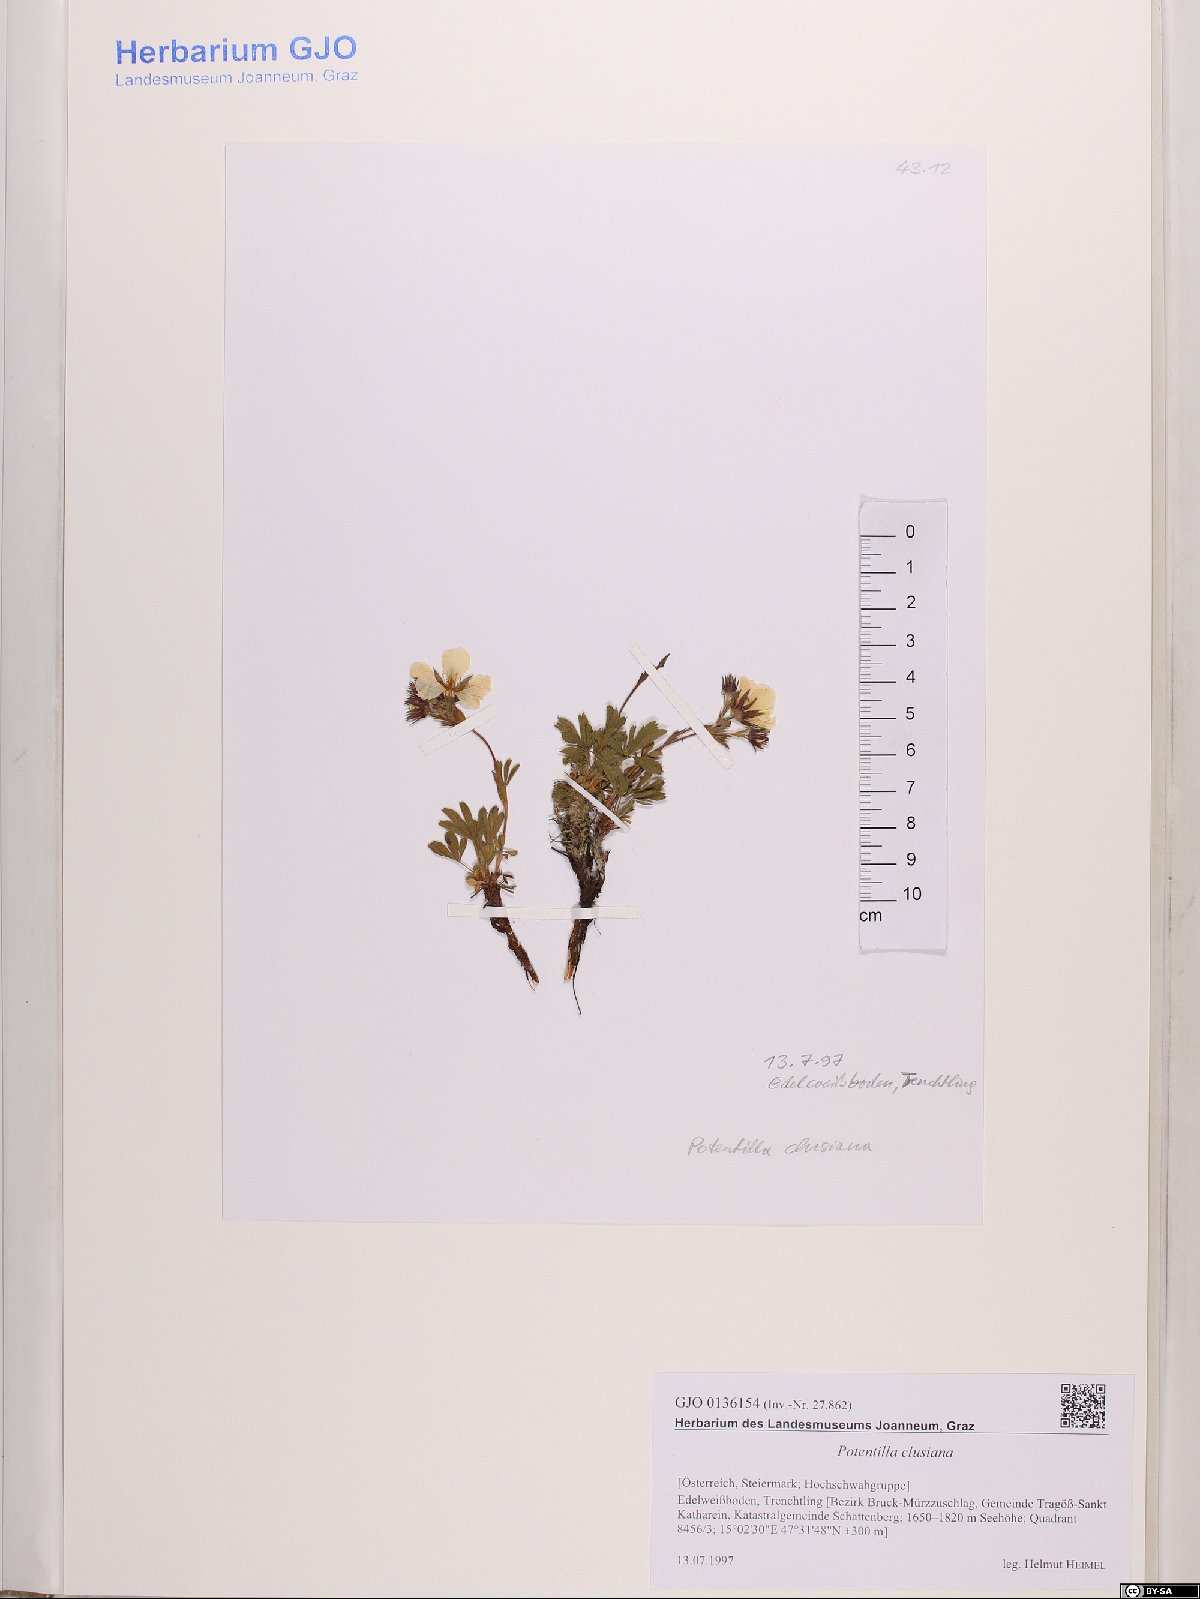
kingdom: Plantae
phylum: Tracheophyta
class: Magnoliopsida
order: Rosales
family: Rosaceae
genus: Potentilla
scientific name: Potentilla clusiana
